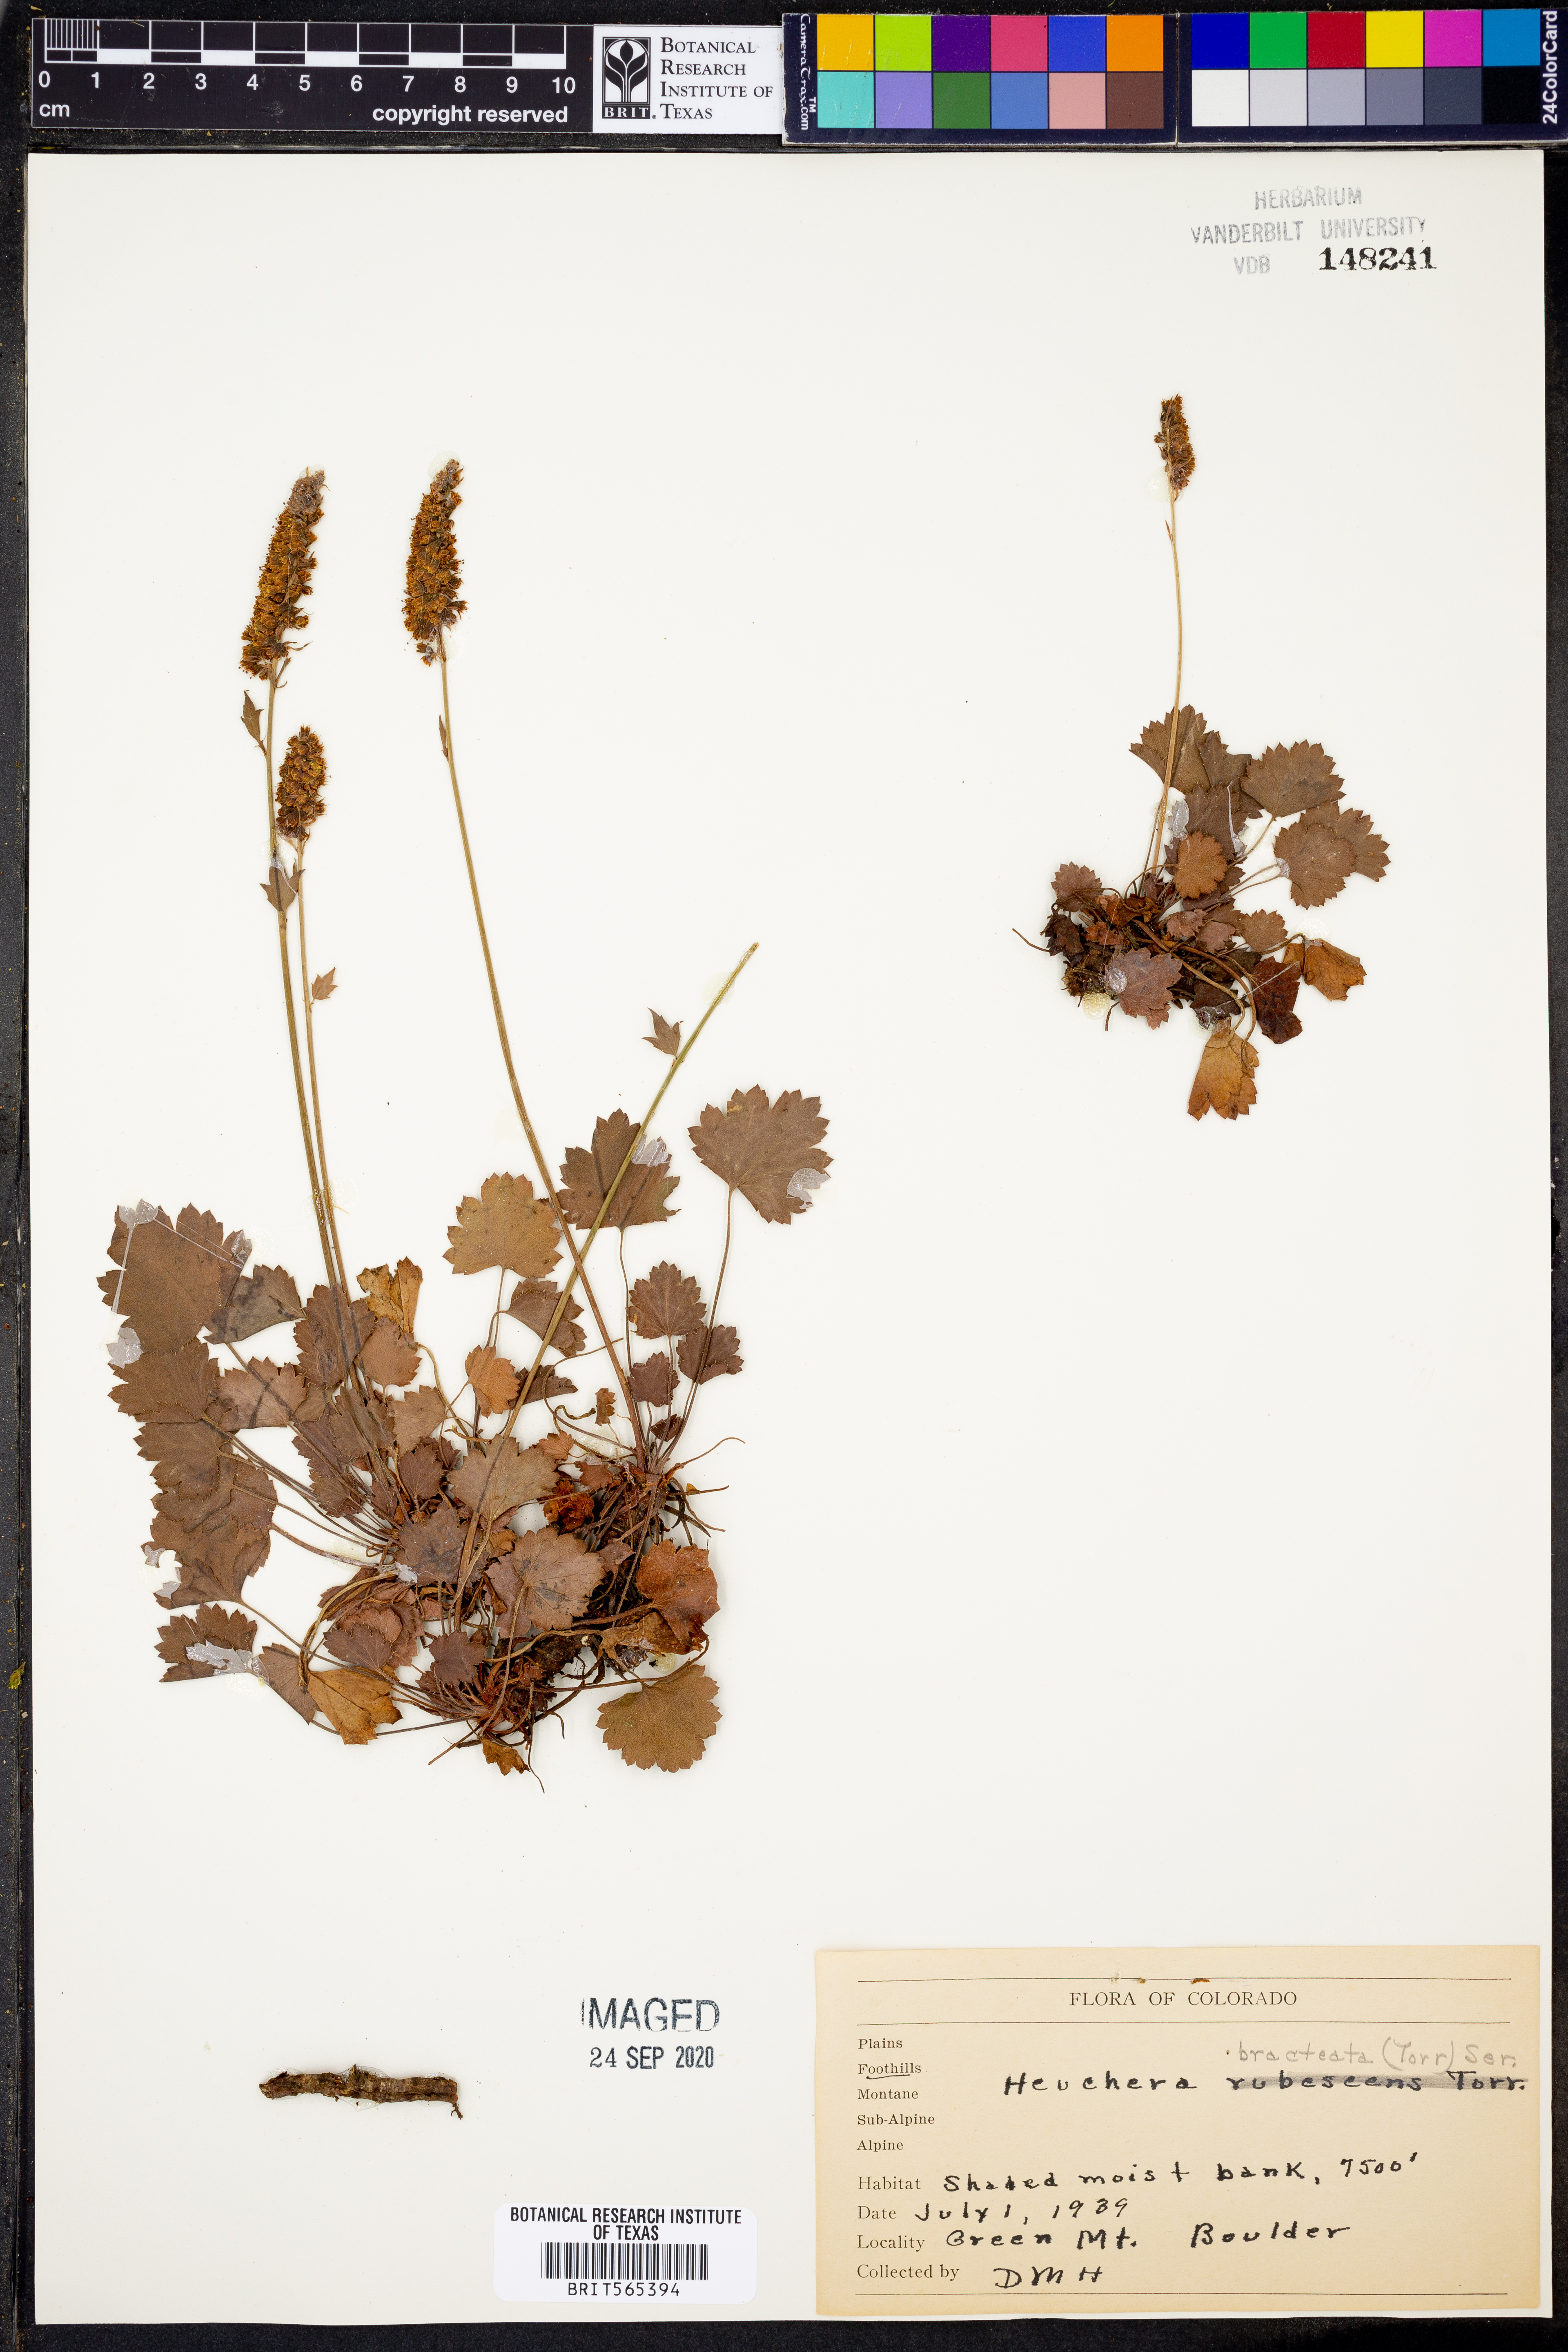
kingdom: Plantae
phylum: Tracheophyta
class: Magnoliopsida
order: Saxifragales
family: Saxifragaceae
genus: Heuchera
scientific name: Heuchera bracteata
